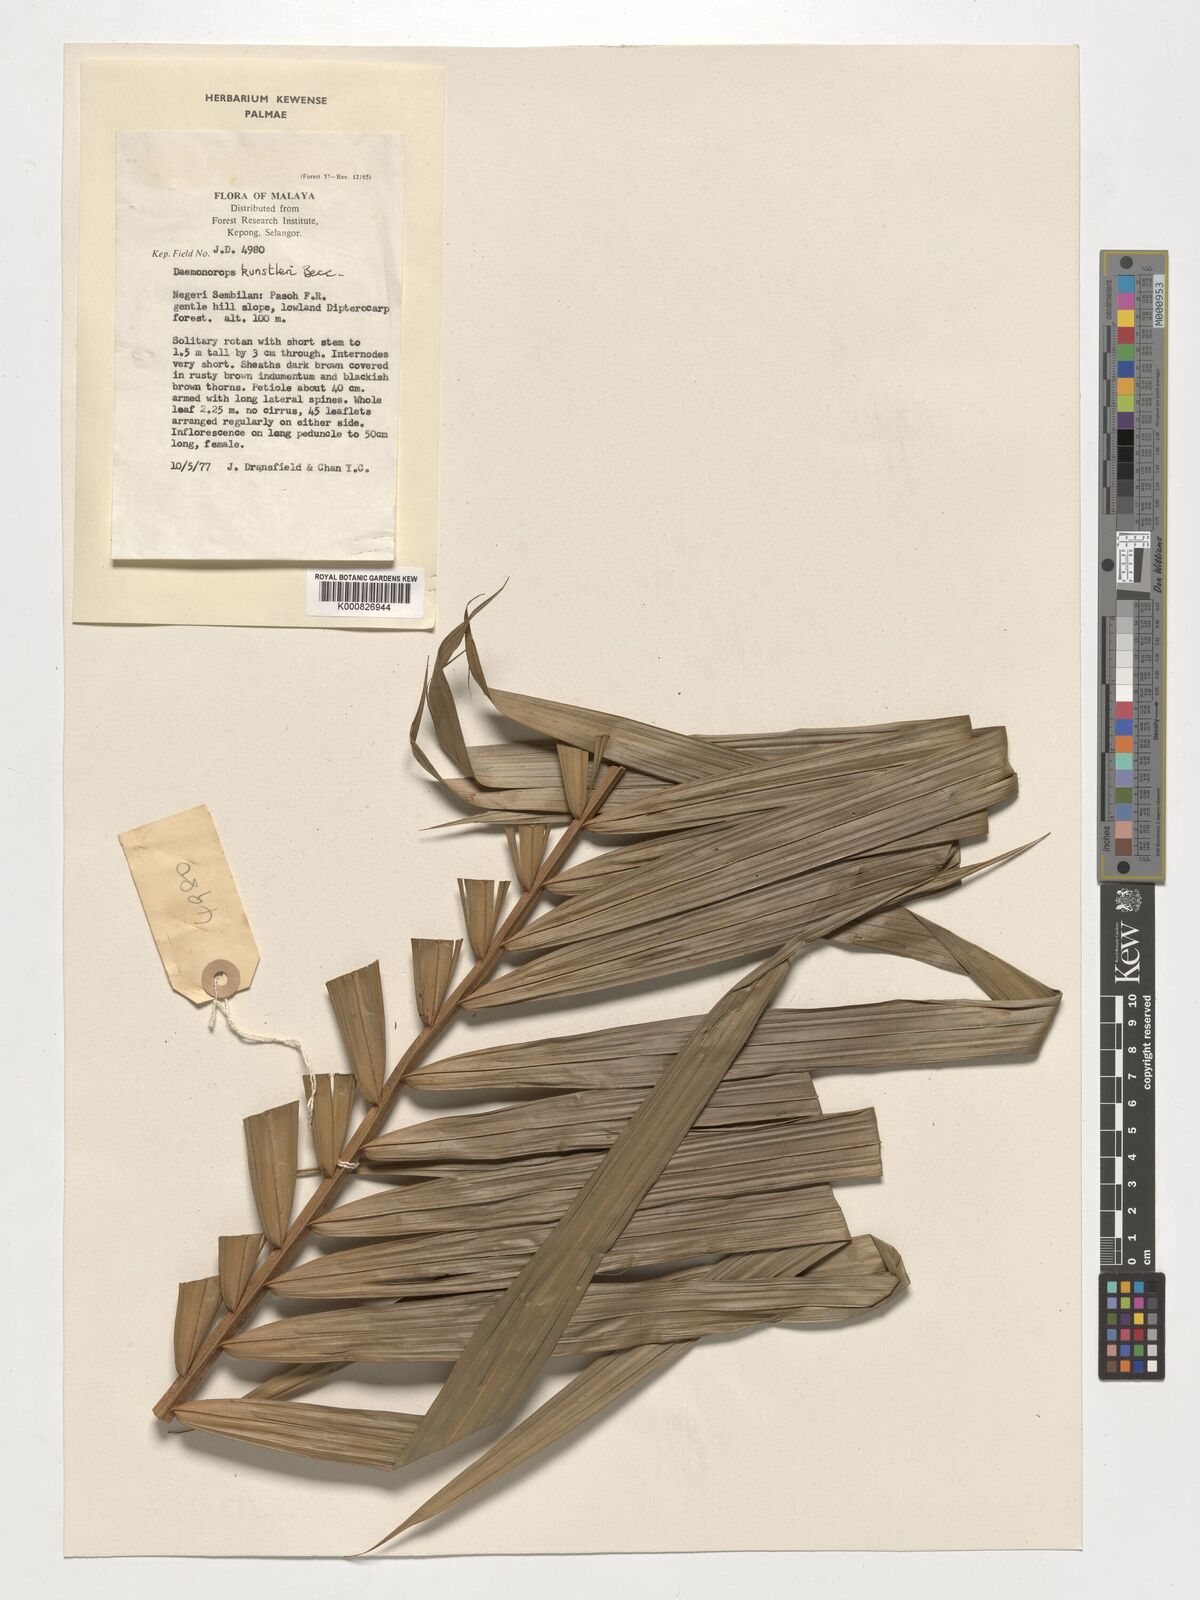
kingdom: Plantae
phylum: Tracheophyta
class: Liliopsida
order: Arecales
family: Arecaceae
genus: Calamus
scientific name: Calamus kunstleri
